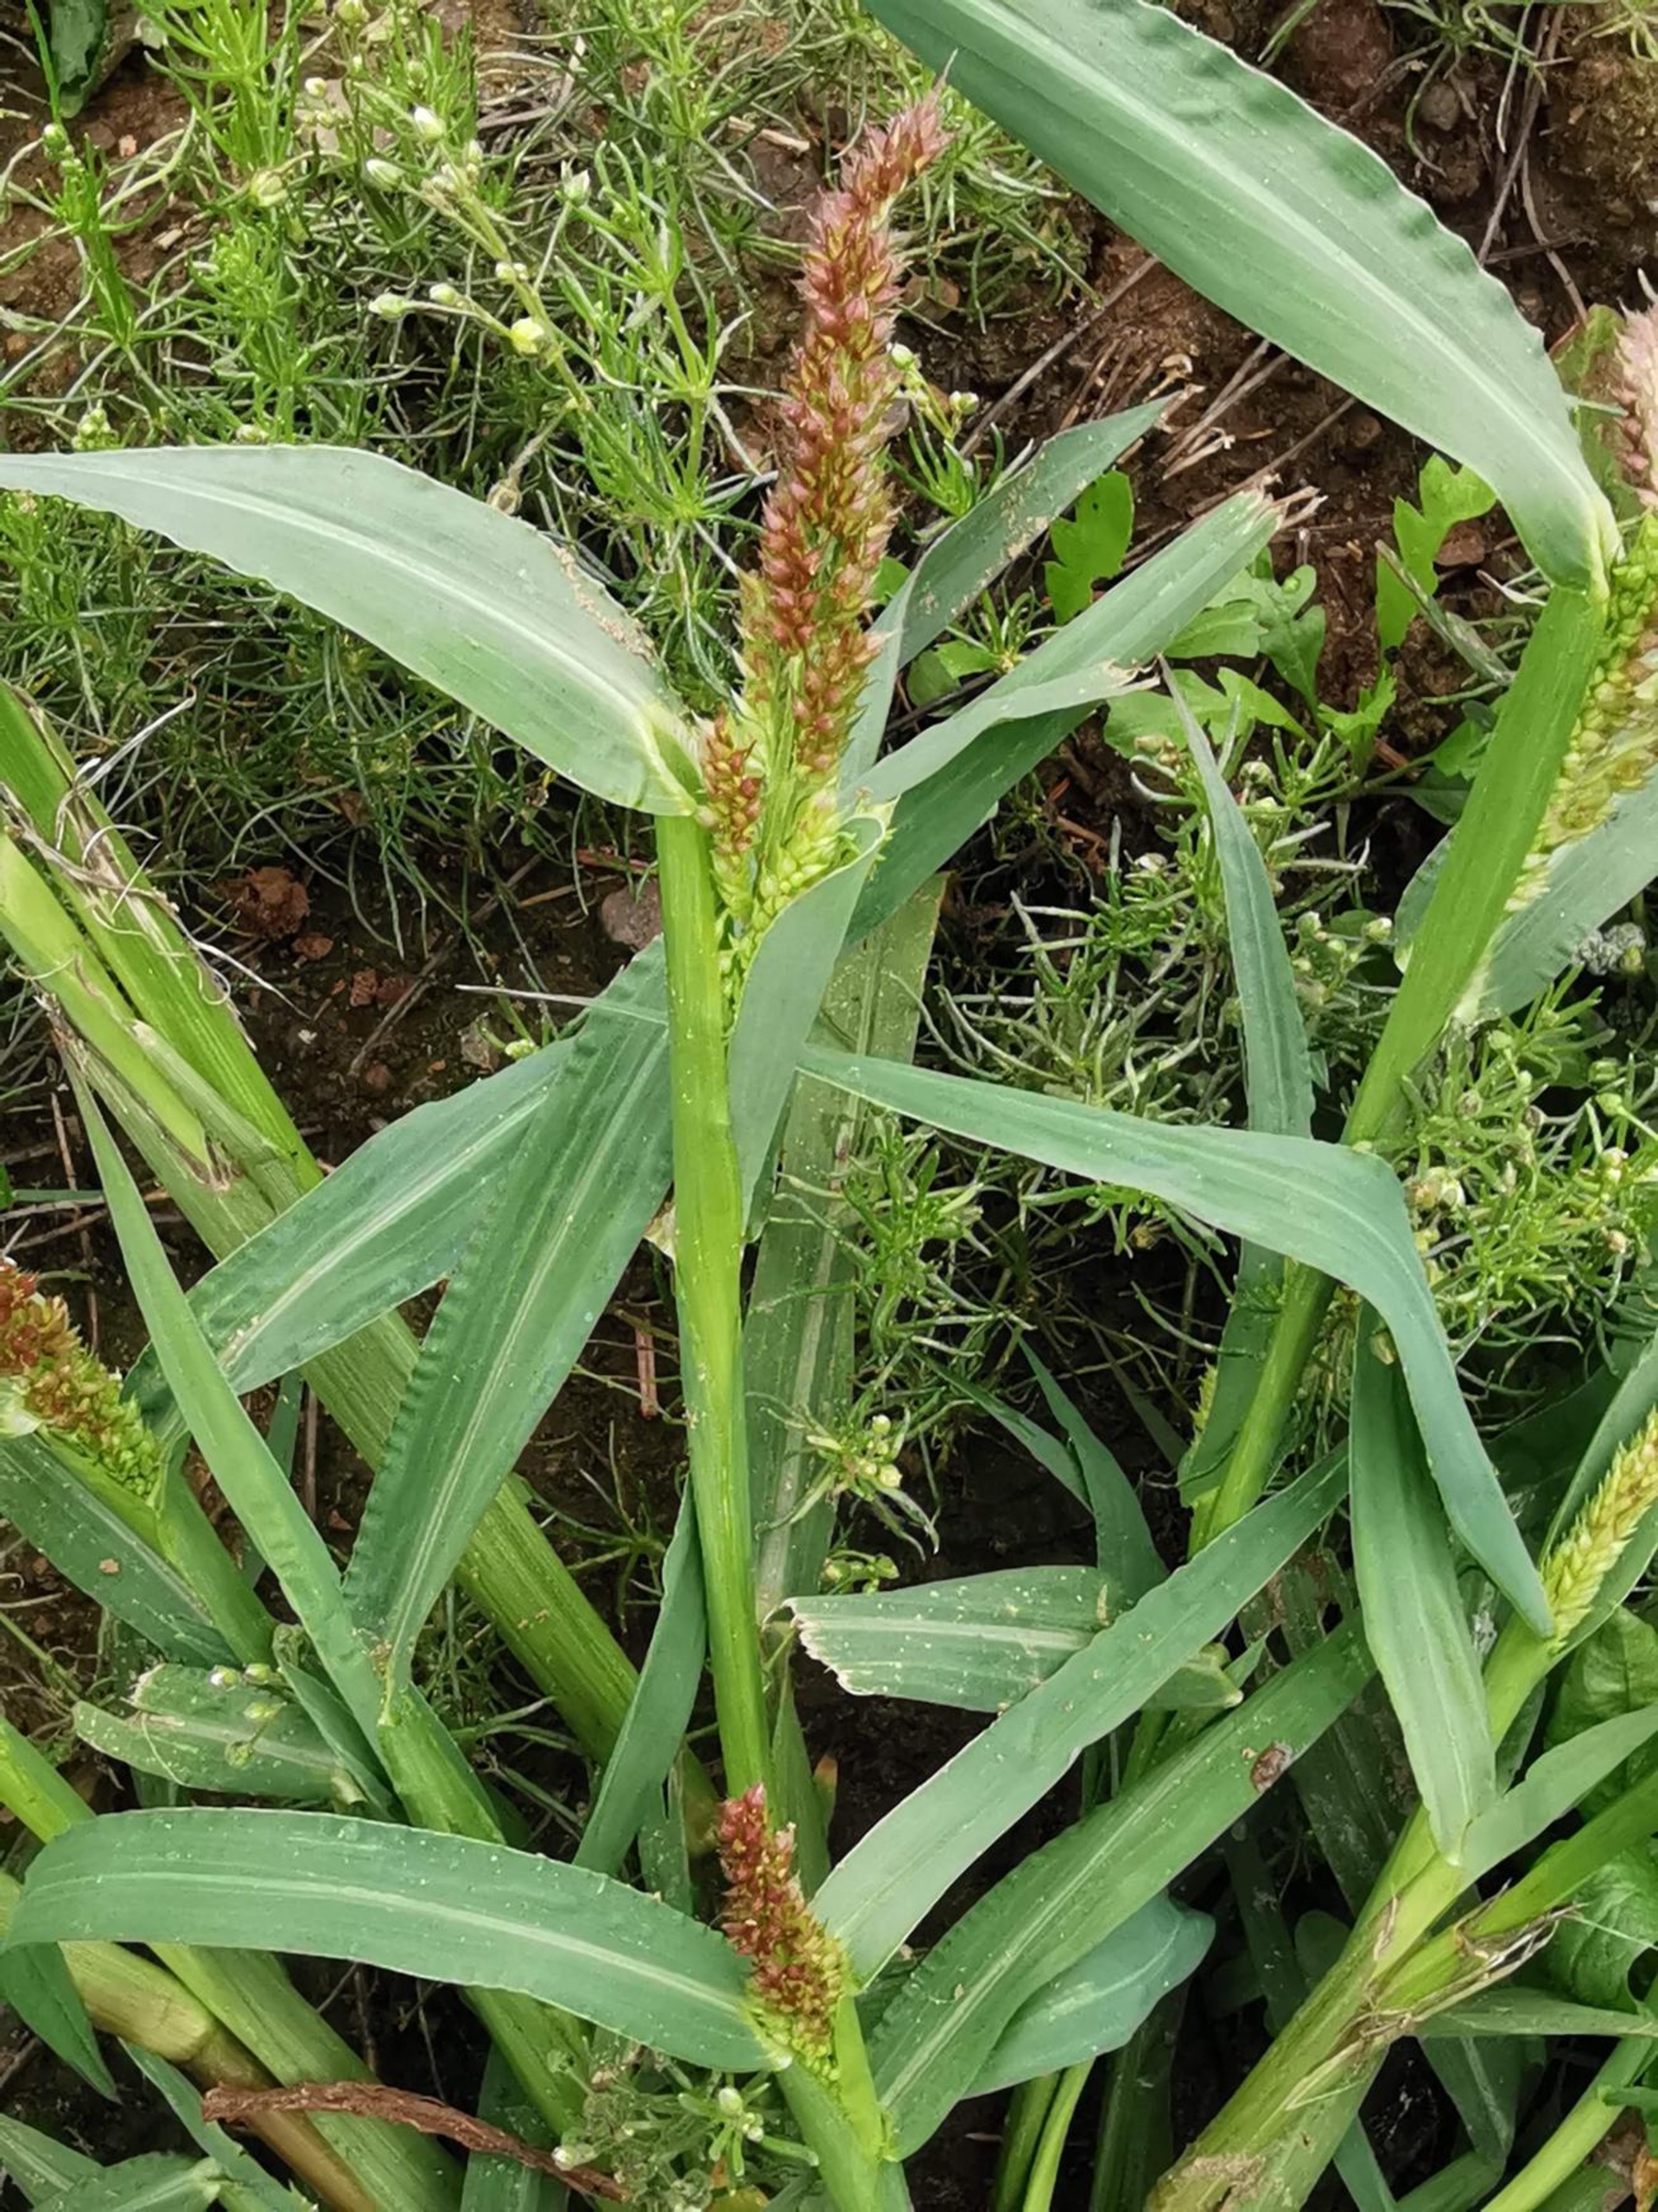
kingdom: Plantae
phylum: Tracheophyta
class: Liliopsida
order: Poales
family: Poaceae
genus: Echinochloa
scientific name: Echinochloa crus-galli
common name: Almindelig hanespore
